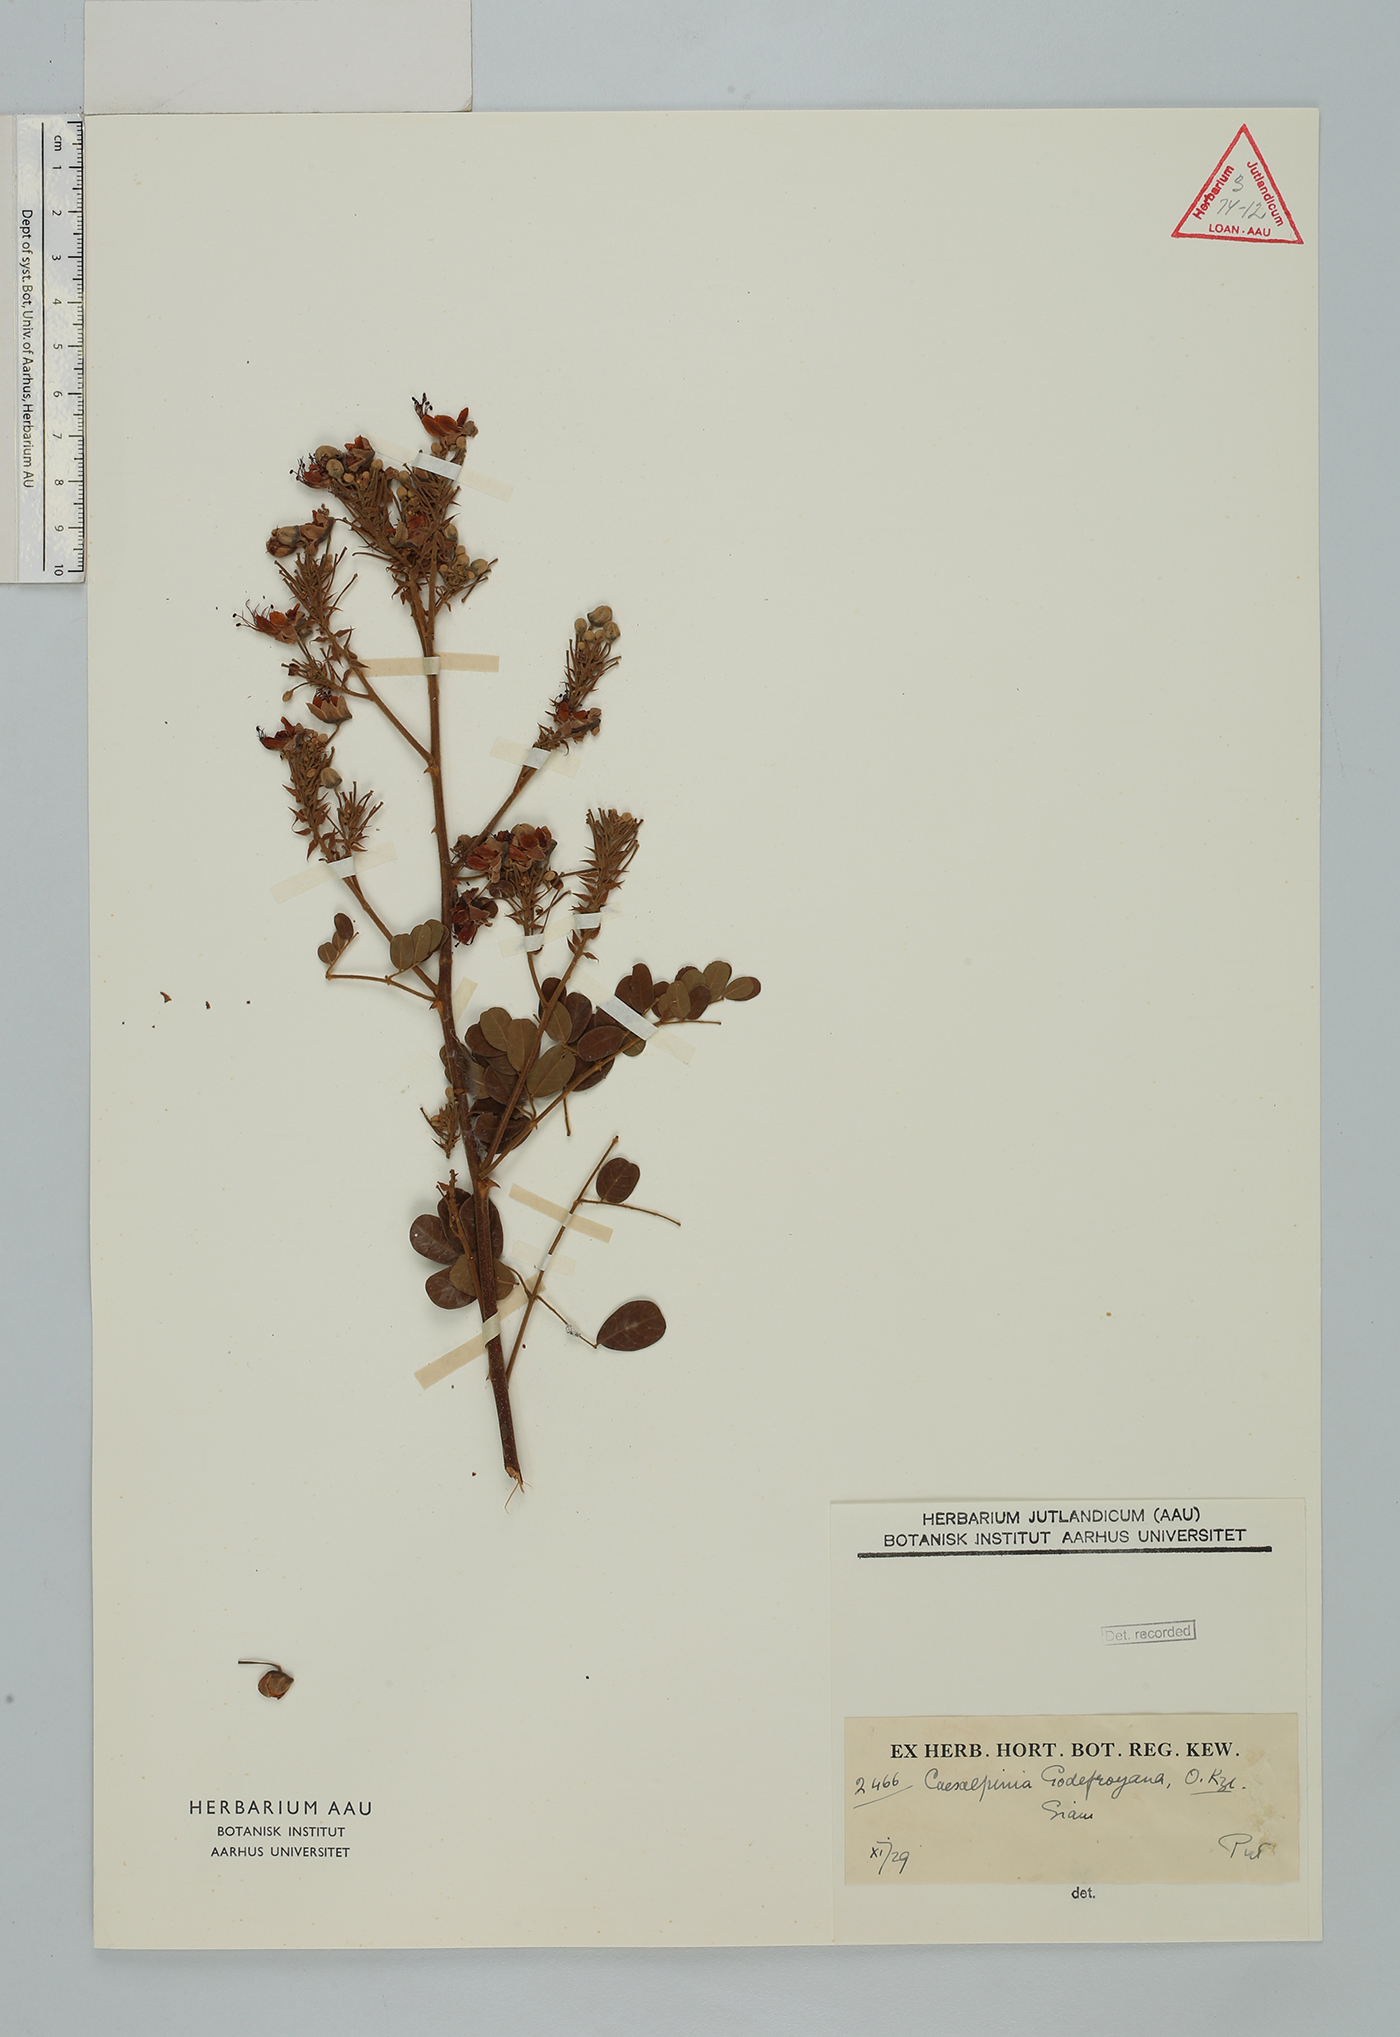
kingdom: Plantae
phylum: Tracheophyta
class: Magnoliopsida
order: Fabales
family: Fabaceae
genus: Biancaea
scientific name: Biancaea godefroyana
